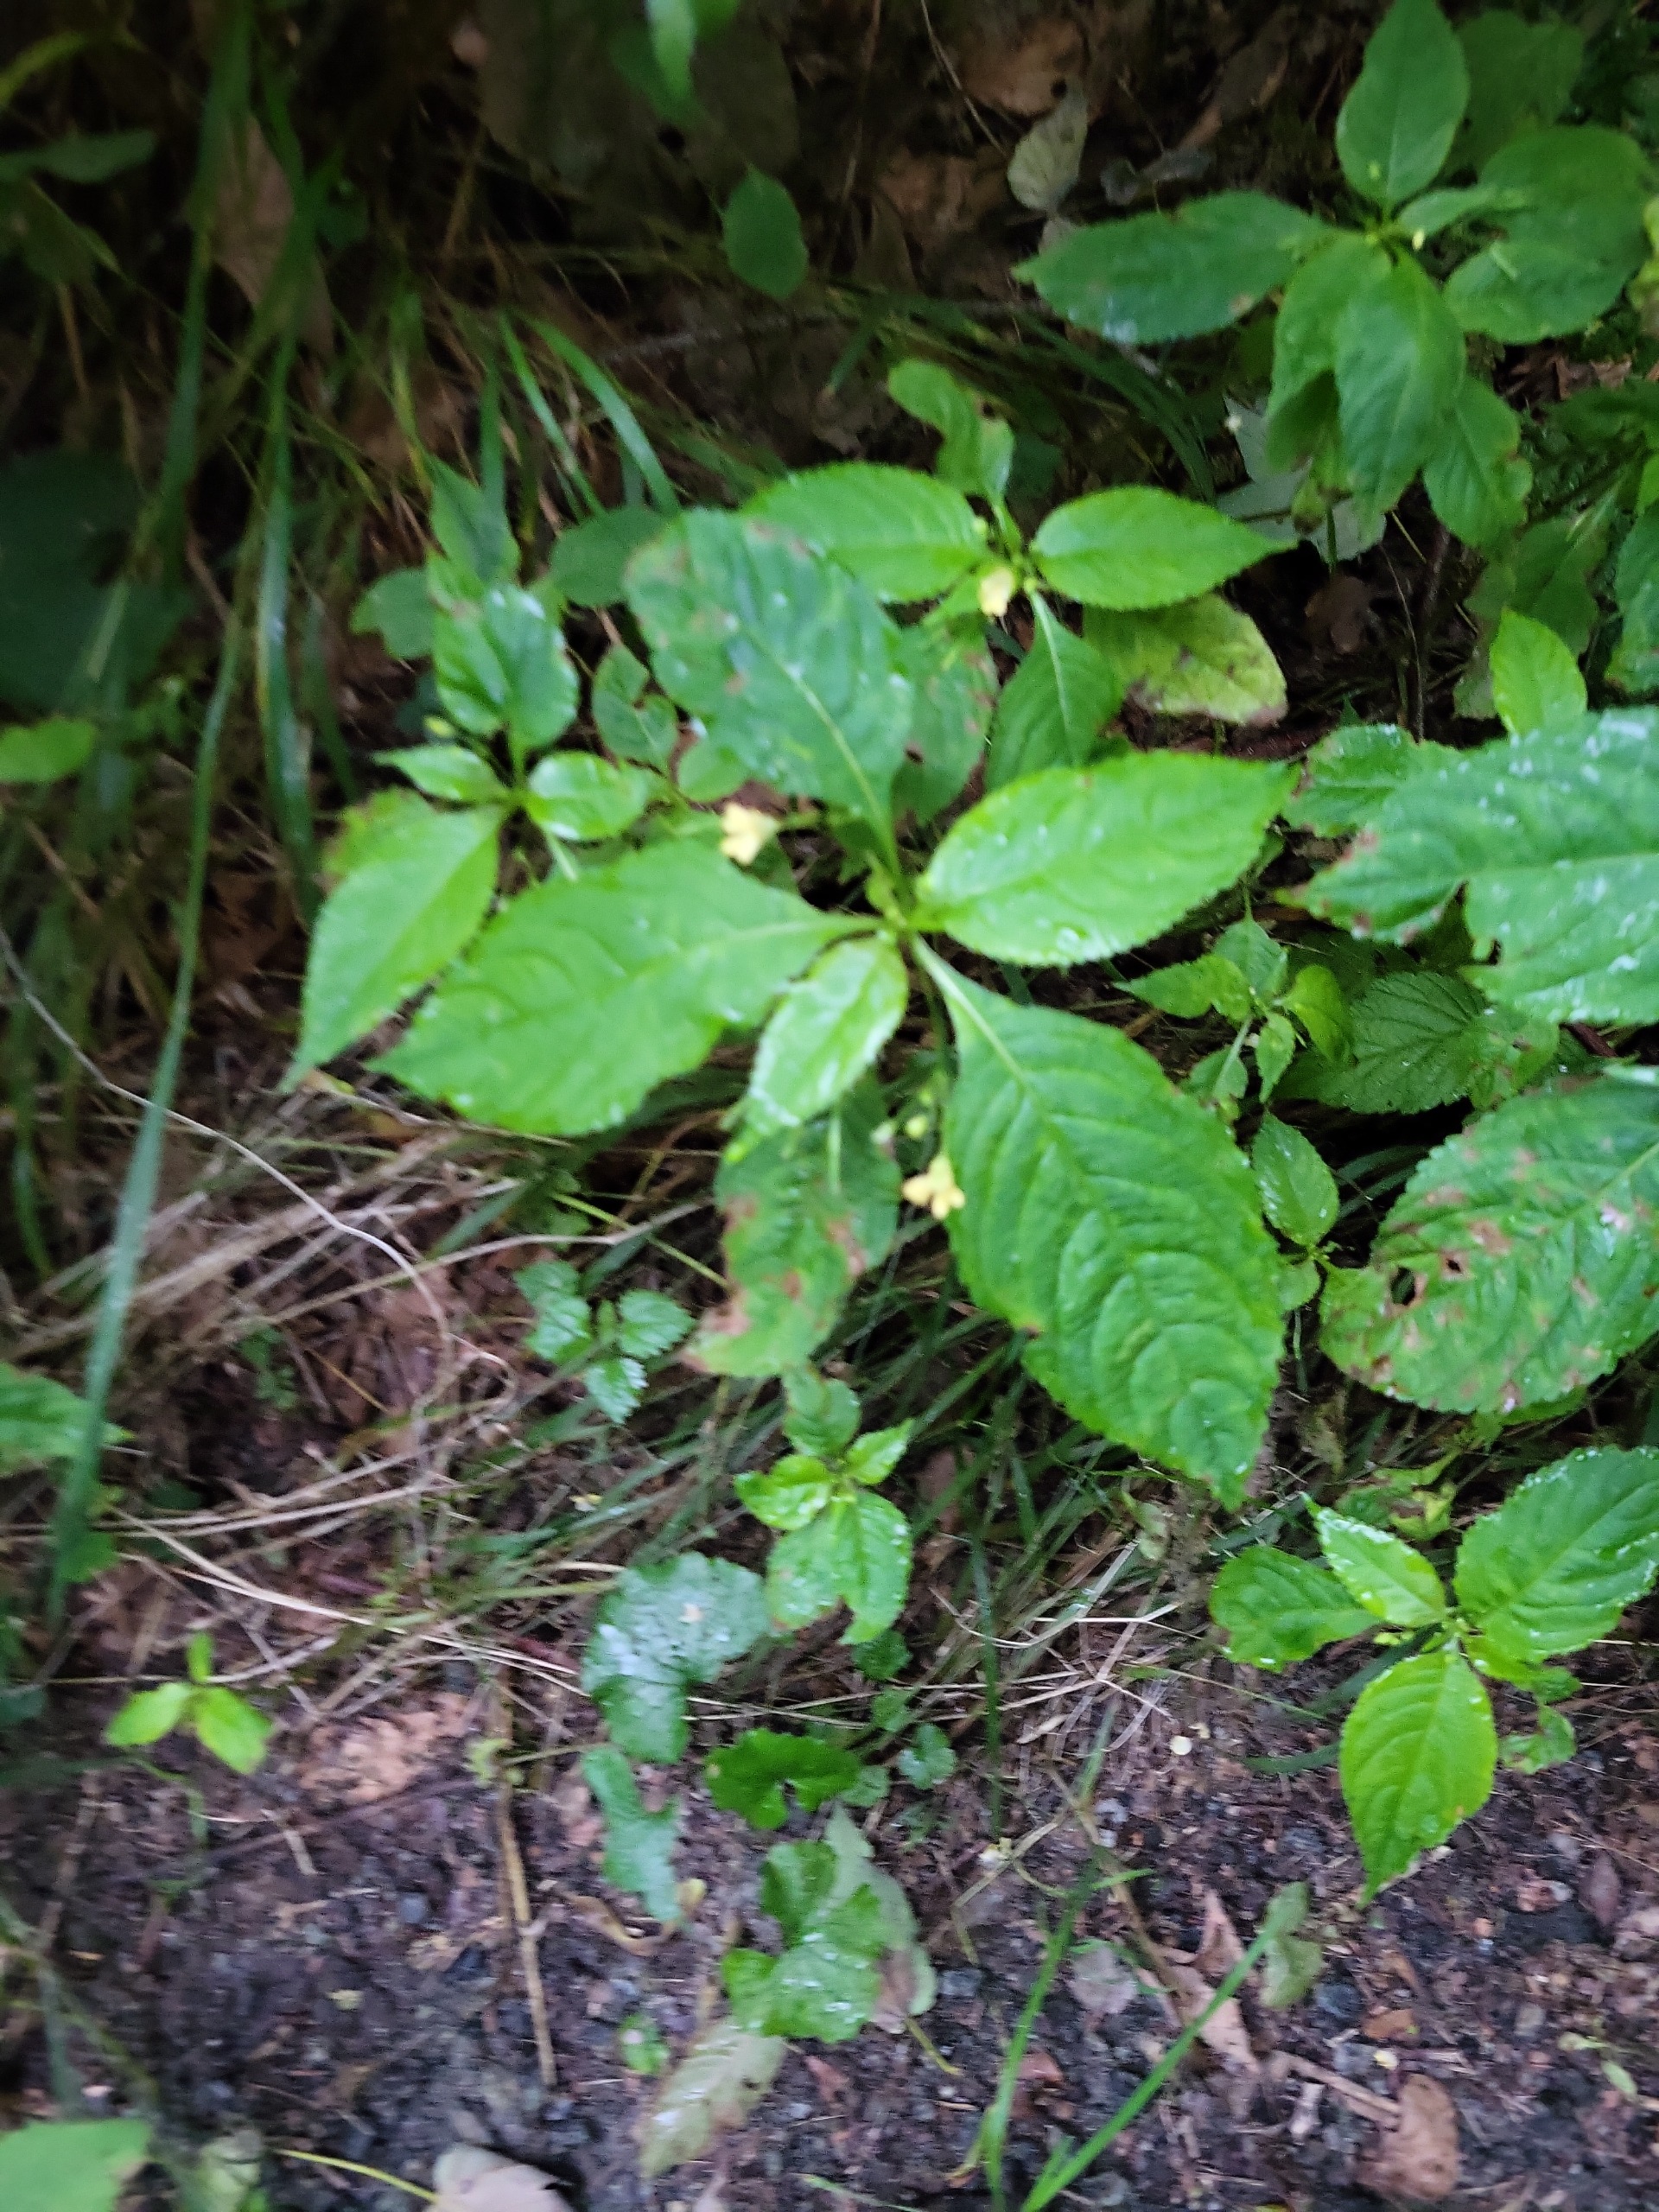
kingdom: Plantae
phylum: Tracheophyta
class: Magnoliopsida
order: Ericales
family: Balsaminaceae
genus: Impatiens
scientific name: Impatiens parviflora
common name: Småblomstret balsamin
